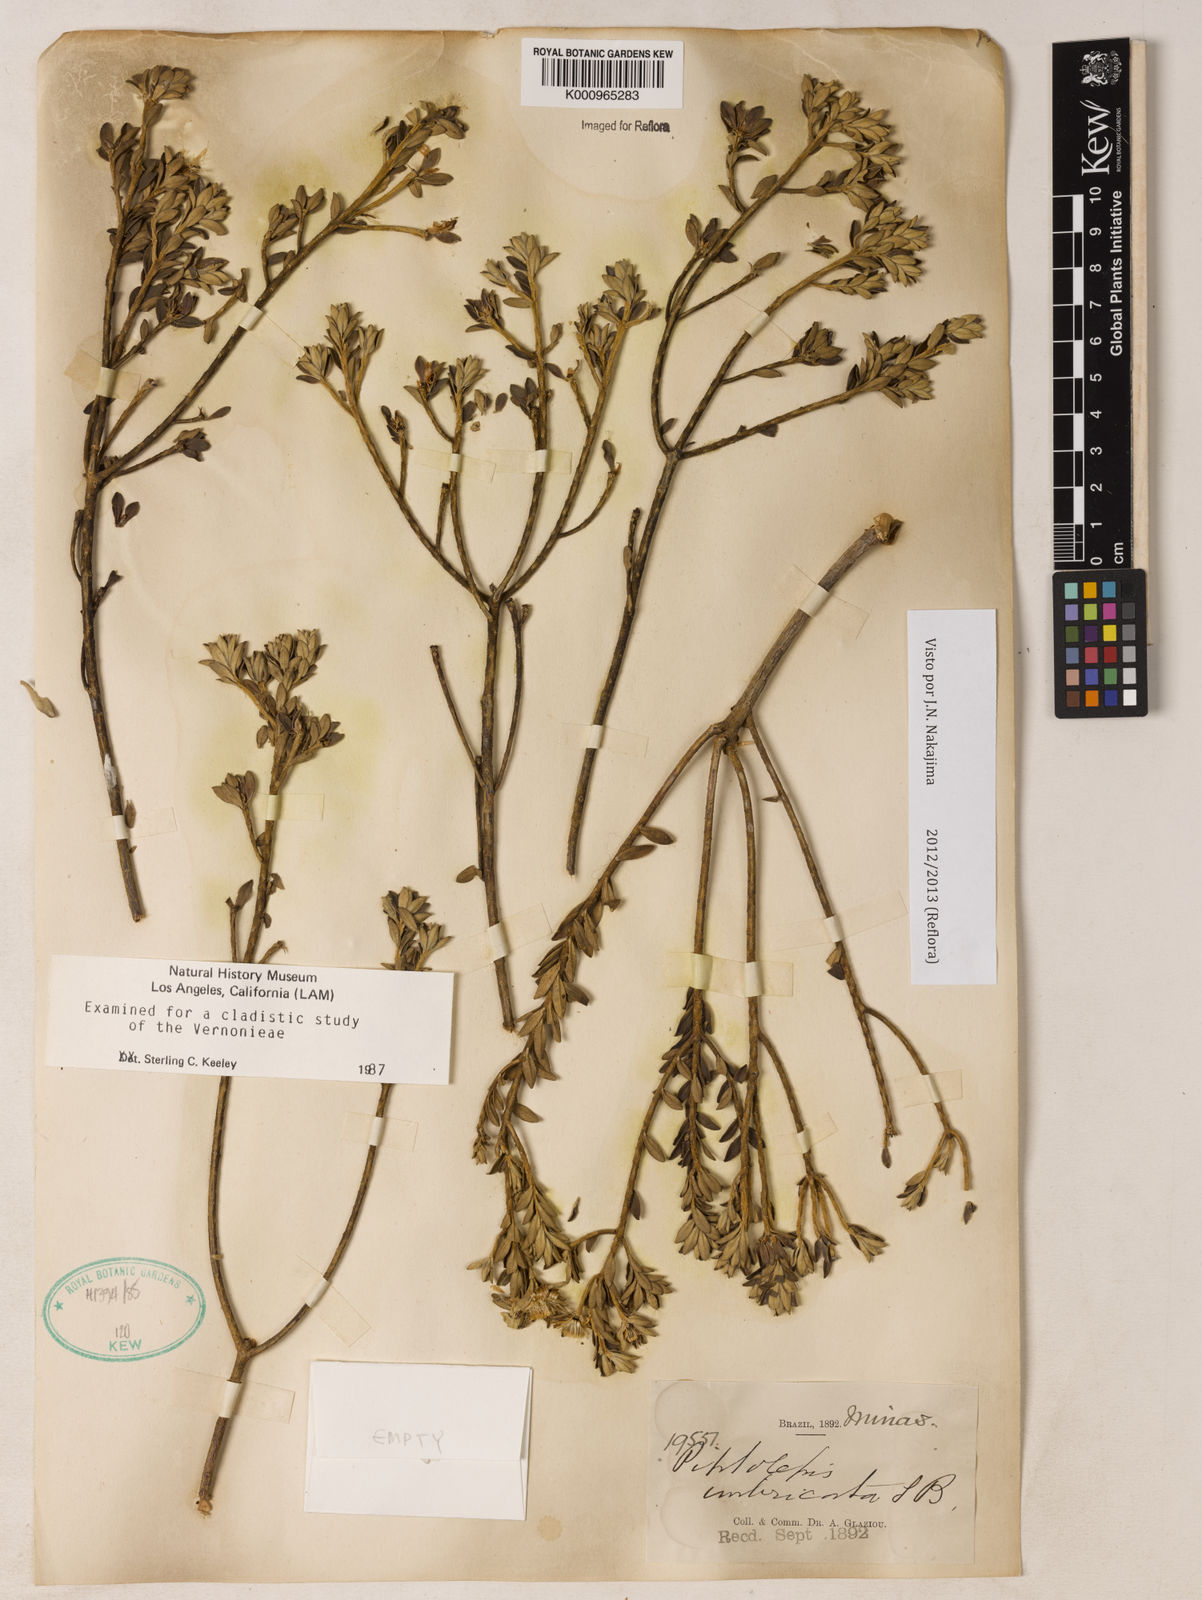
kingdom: Plantae
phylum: Tracheophyta
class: Magnoliopsida
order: Asterales
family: Asteraceae
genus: Piptolepis
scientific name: Piptolepis imbricata
